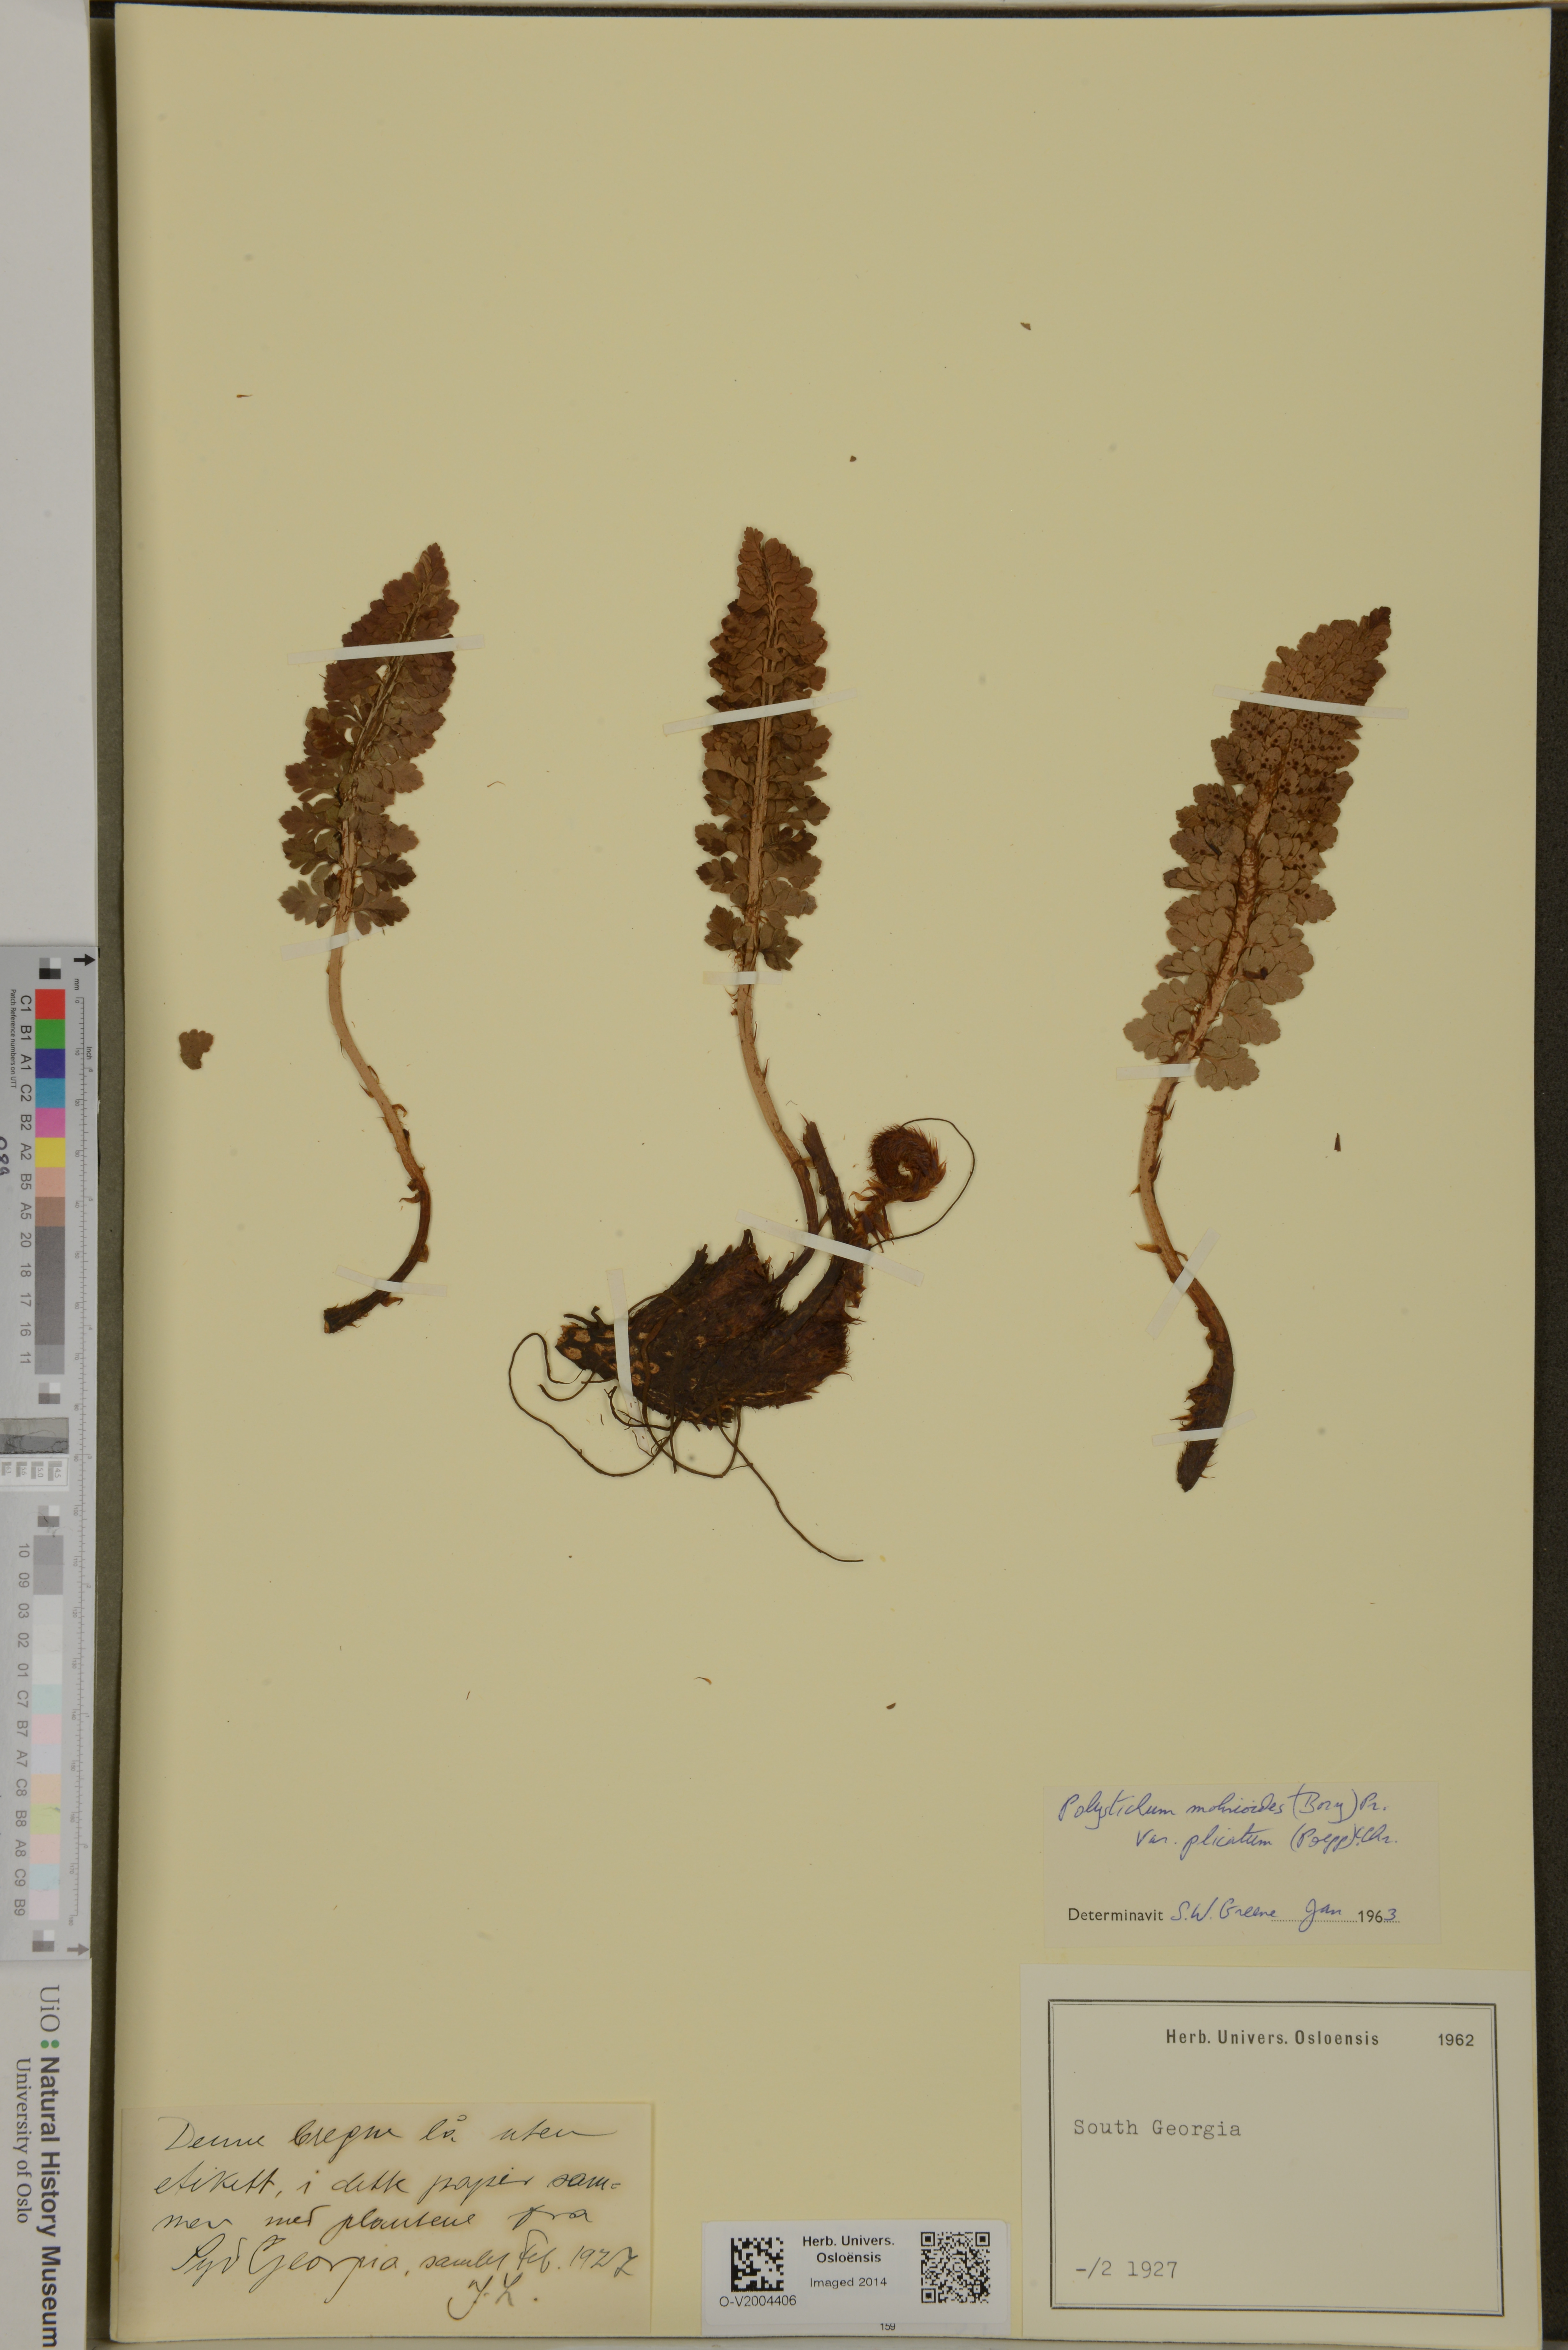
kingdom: Plantae
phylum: Tracheophyta
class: Polypodiopsida
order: Polypodiales
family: Dryopteridaceae
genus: Polystichum
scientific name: Polystichum mohrioides
